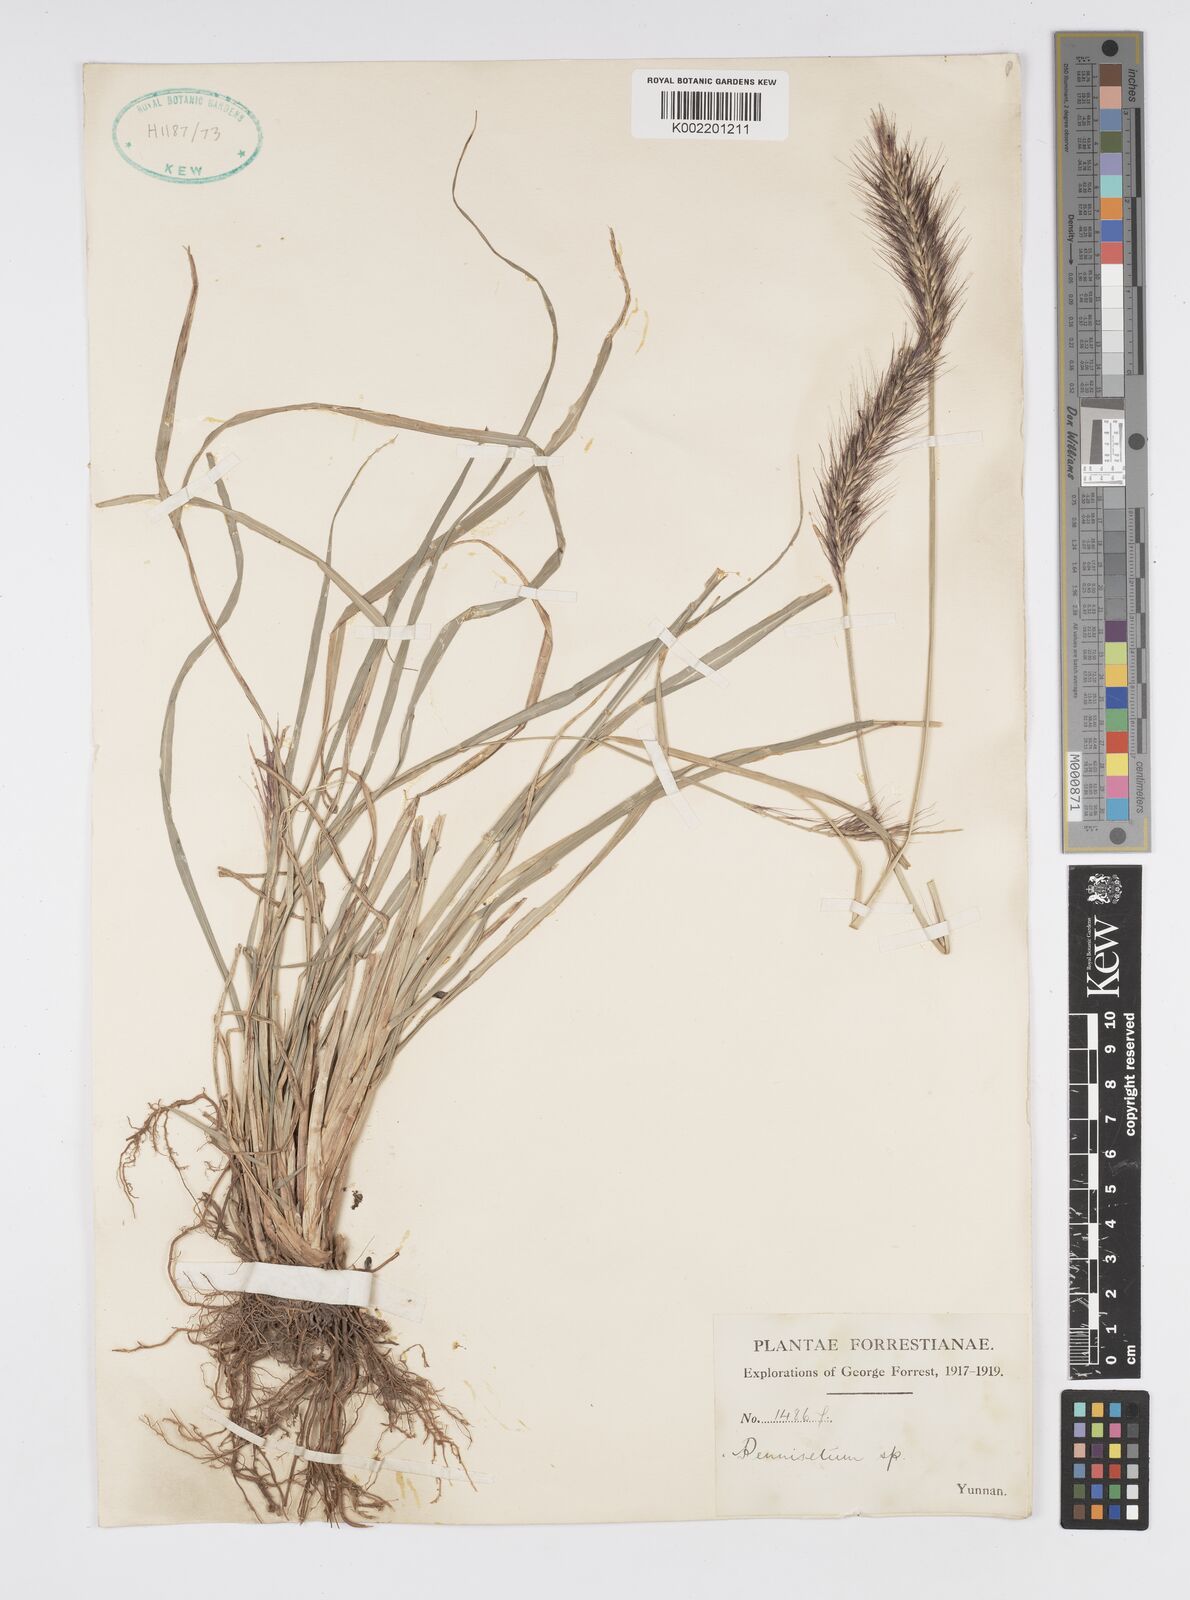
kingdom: Plantae
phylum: Tracheophyta
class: Liliopsida
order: Poales
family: Poaceae
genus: Cenchrus
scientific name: Cenchrus alopecuroides
